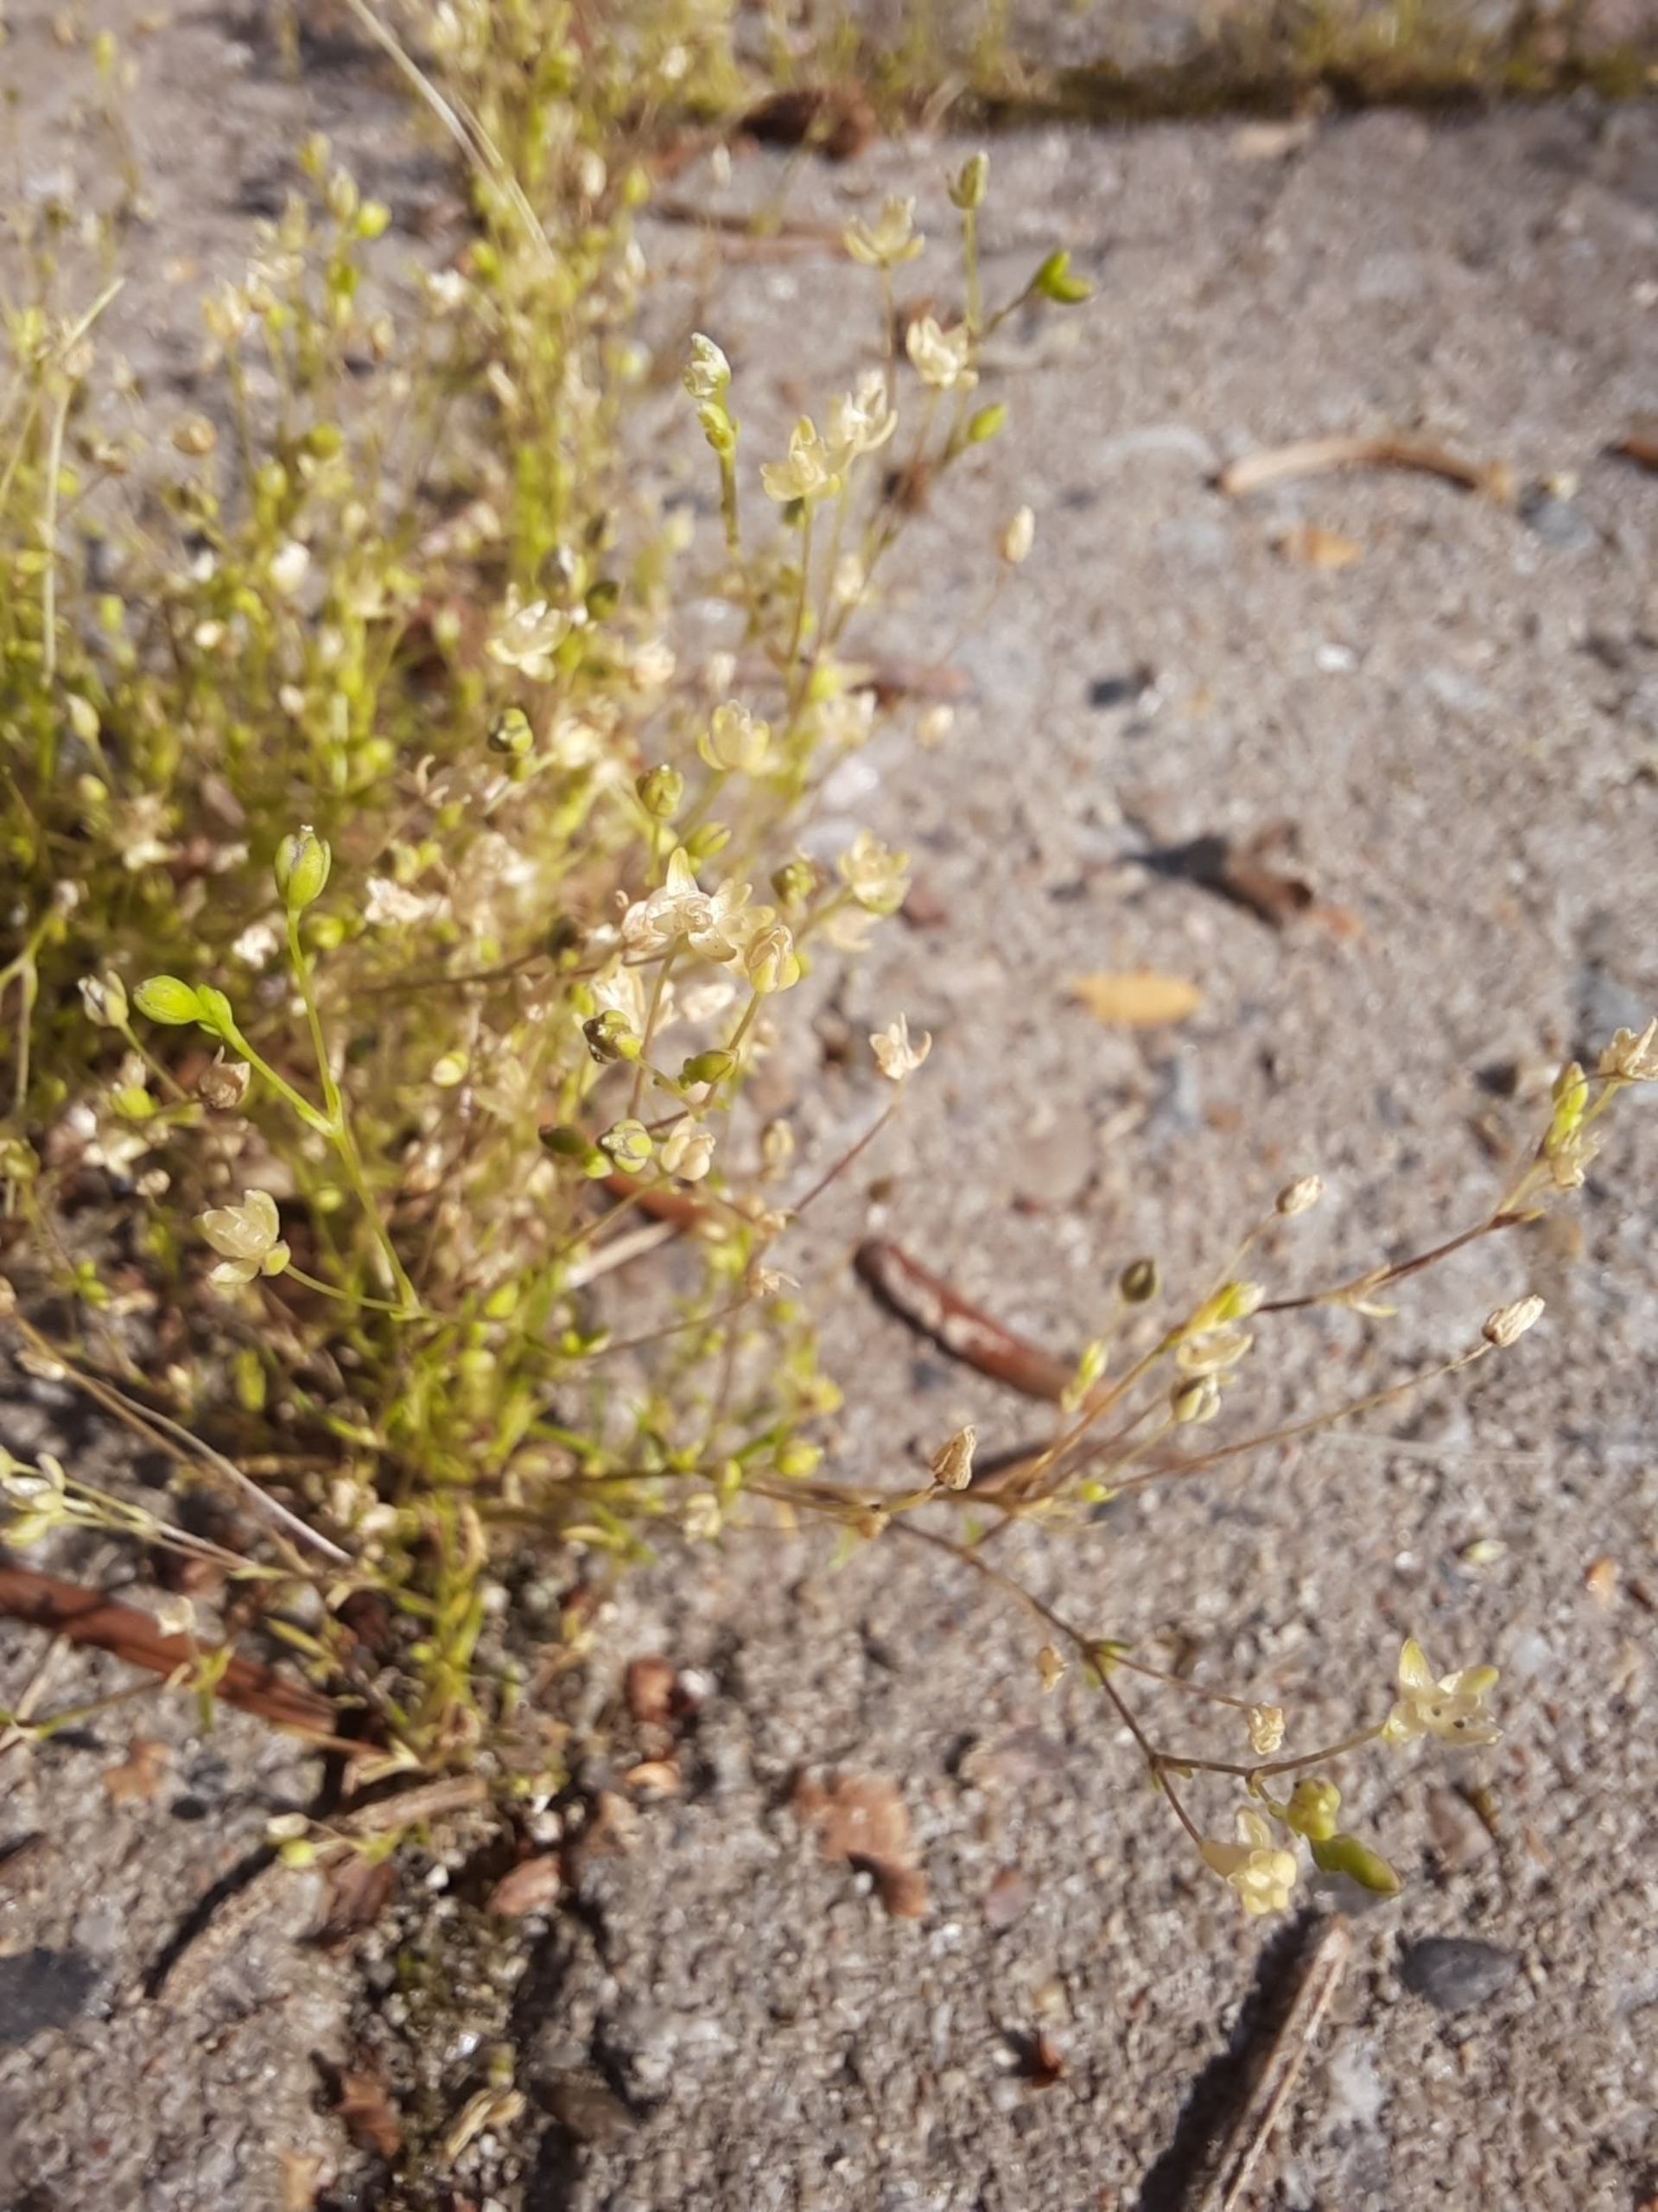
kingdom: Plantae
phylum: Tracheophyta
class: Magnoliopsida
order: Caryophyllales
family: Caryophyllaceae
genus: Sagina
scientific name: Sagina apetala
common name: Kronløs firling
